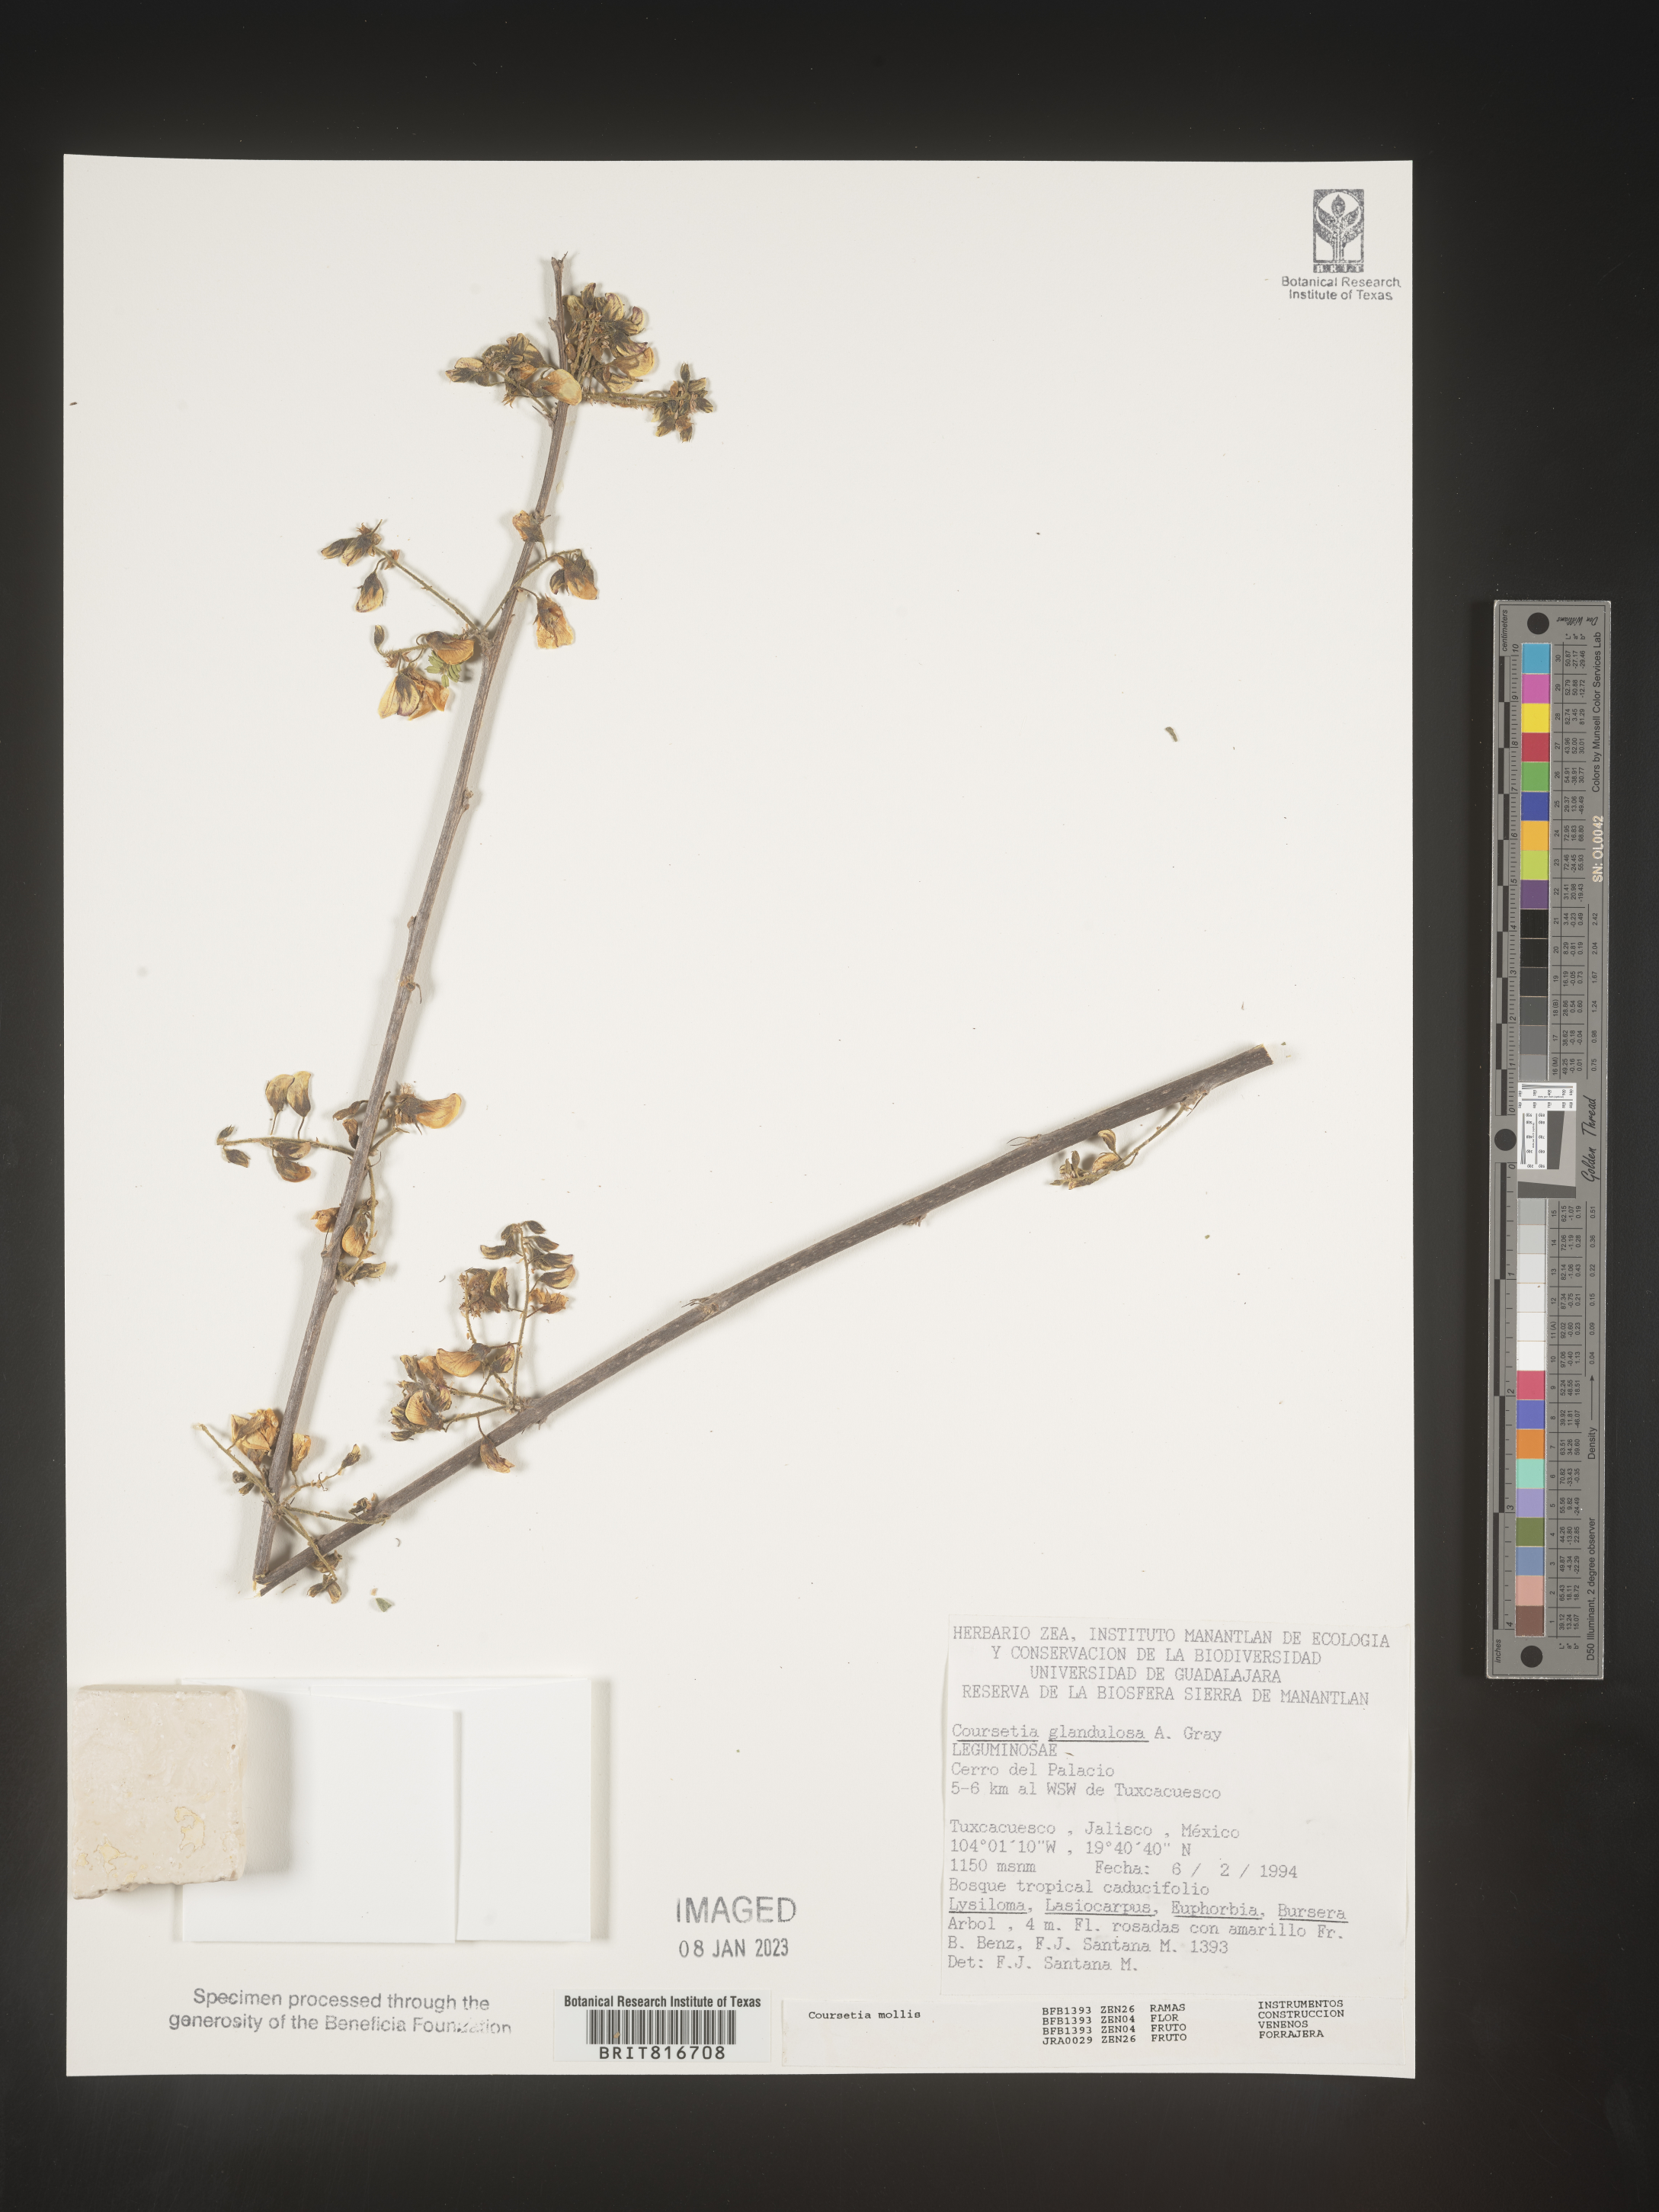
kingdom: Plantae
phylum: Tracheophyta
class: Magnoliopsida
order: Fabales
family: Fabaceae
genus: Coursetia
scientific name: Coursetia
